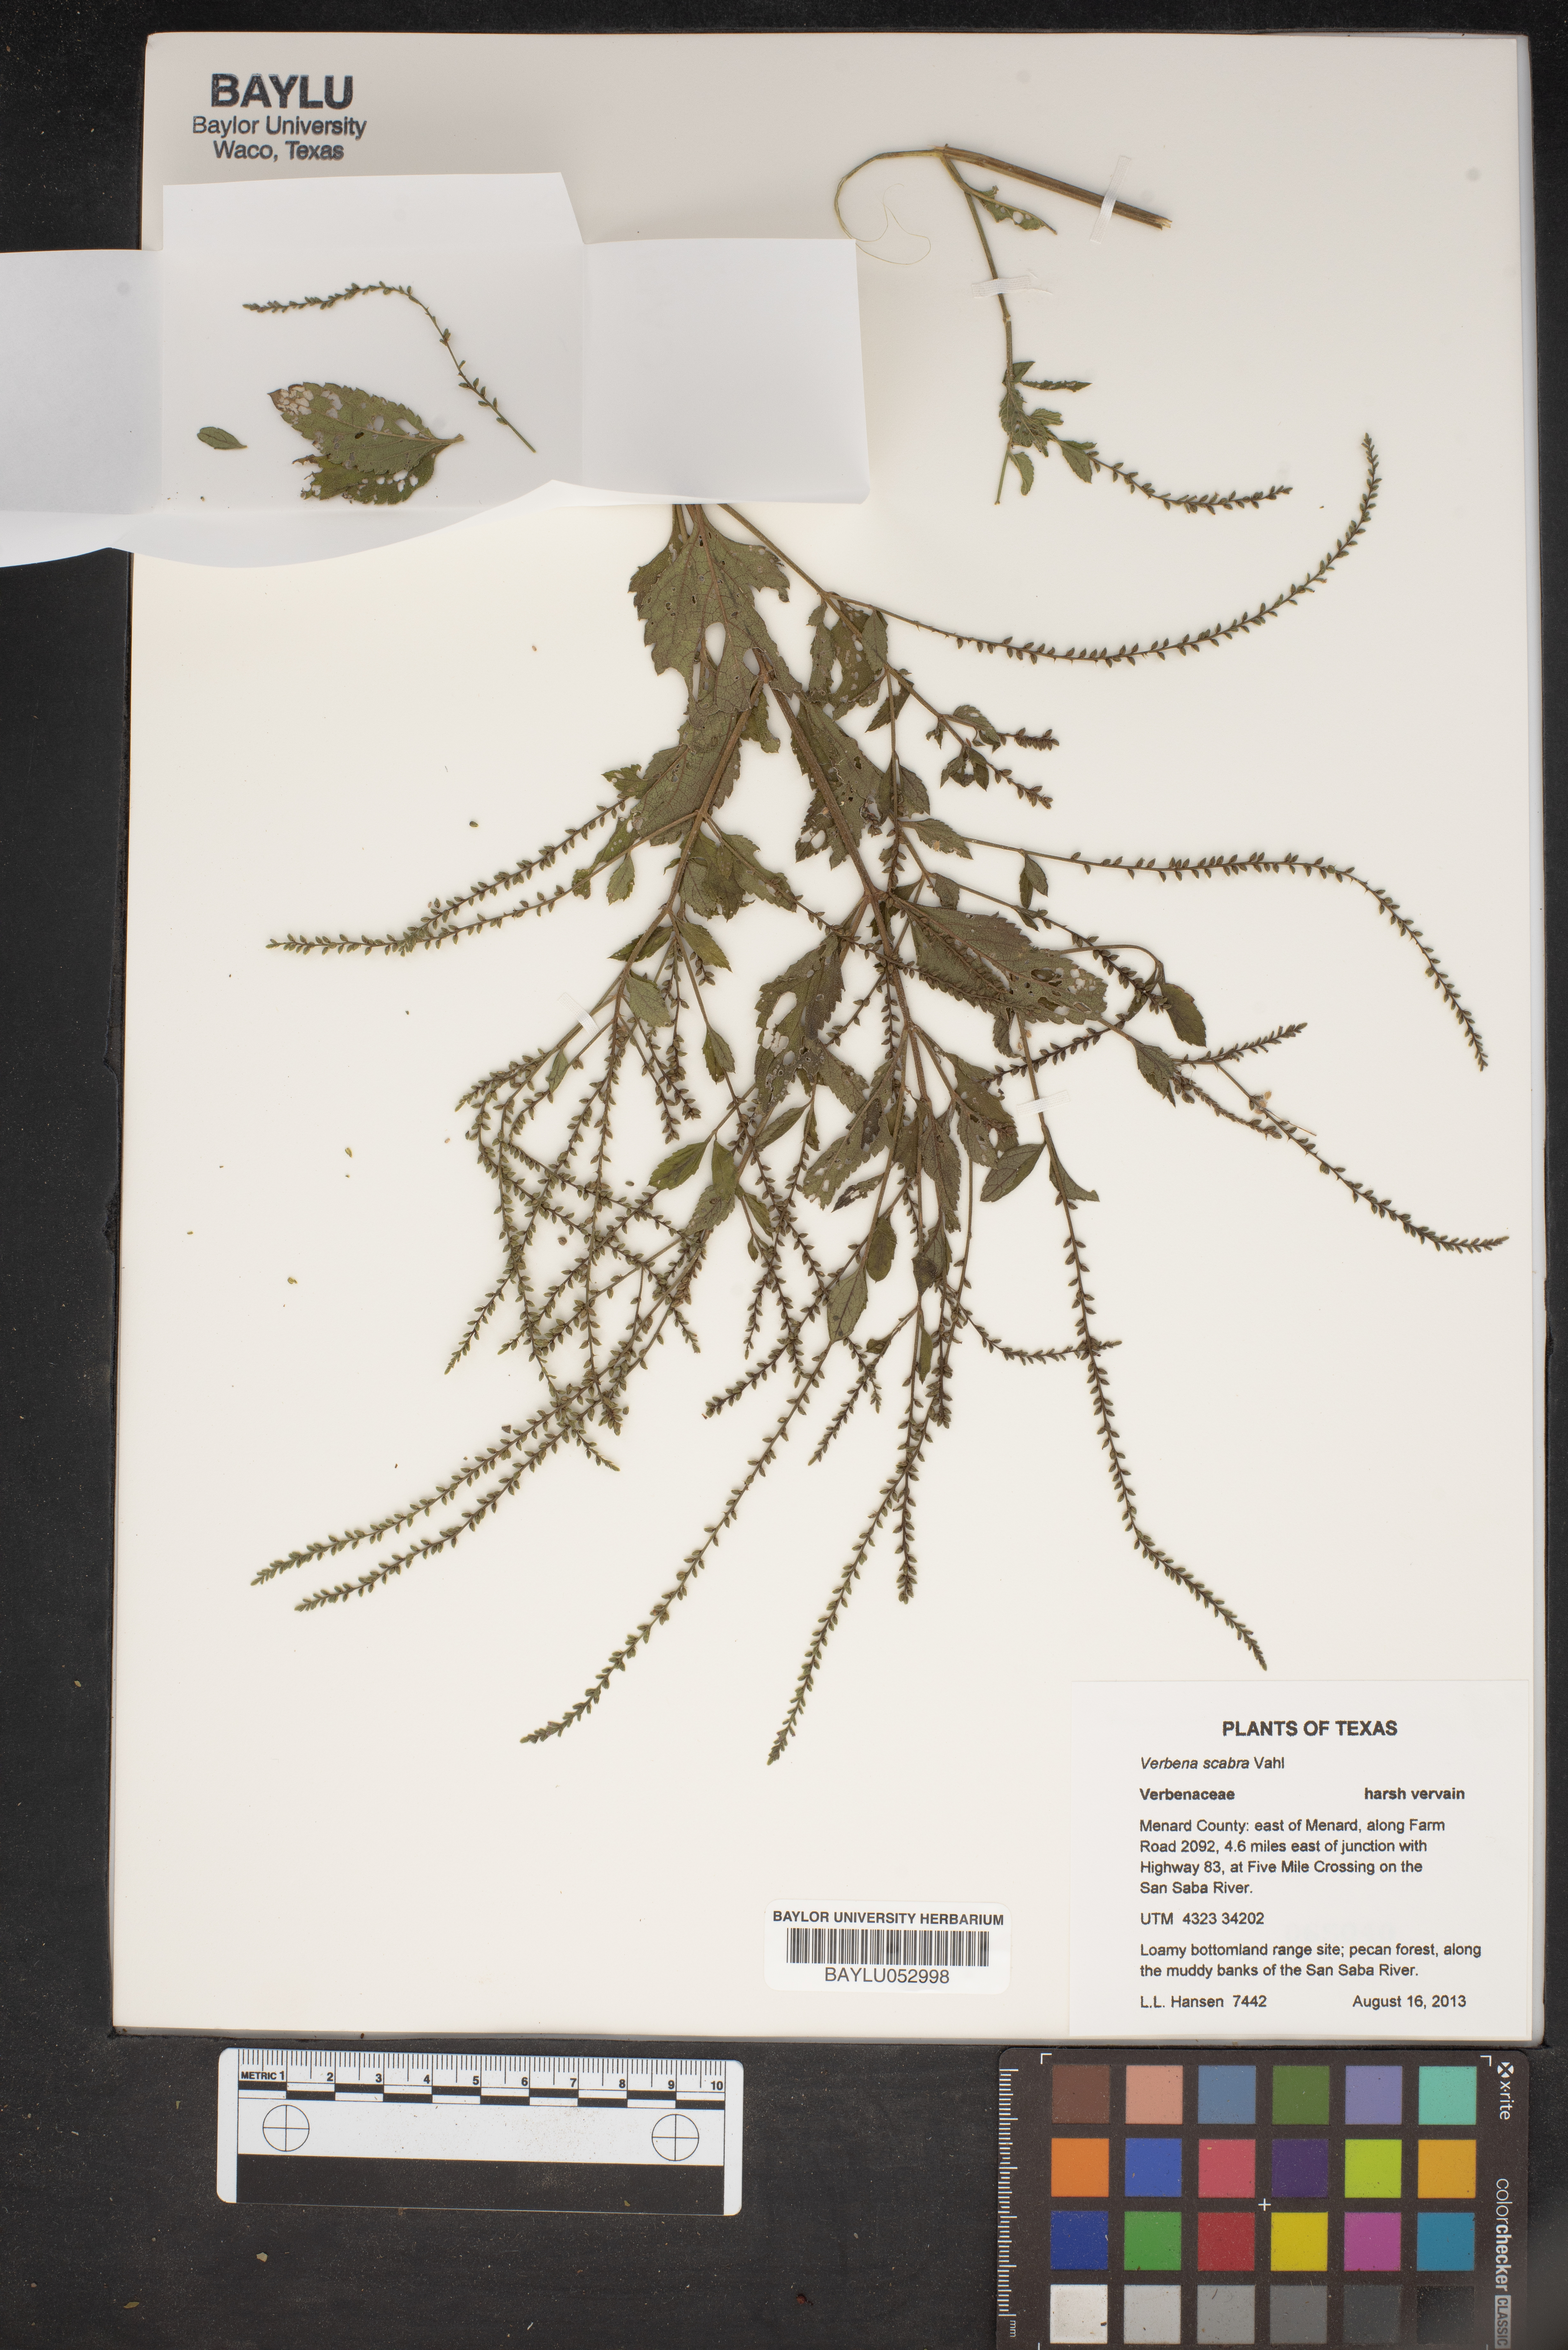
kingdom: Plantae
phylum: Tracheophyta
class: Magnoliopsida
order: Lamiales
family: Verbenaceae
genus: Verbena
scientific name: Verbena scabra
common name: Sandpaper vervain
